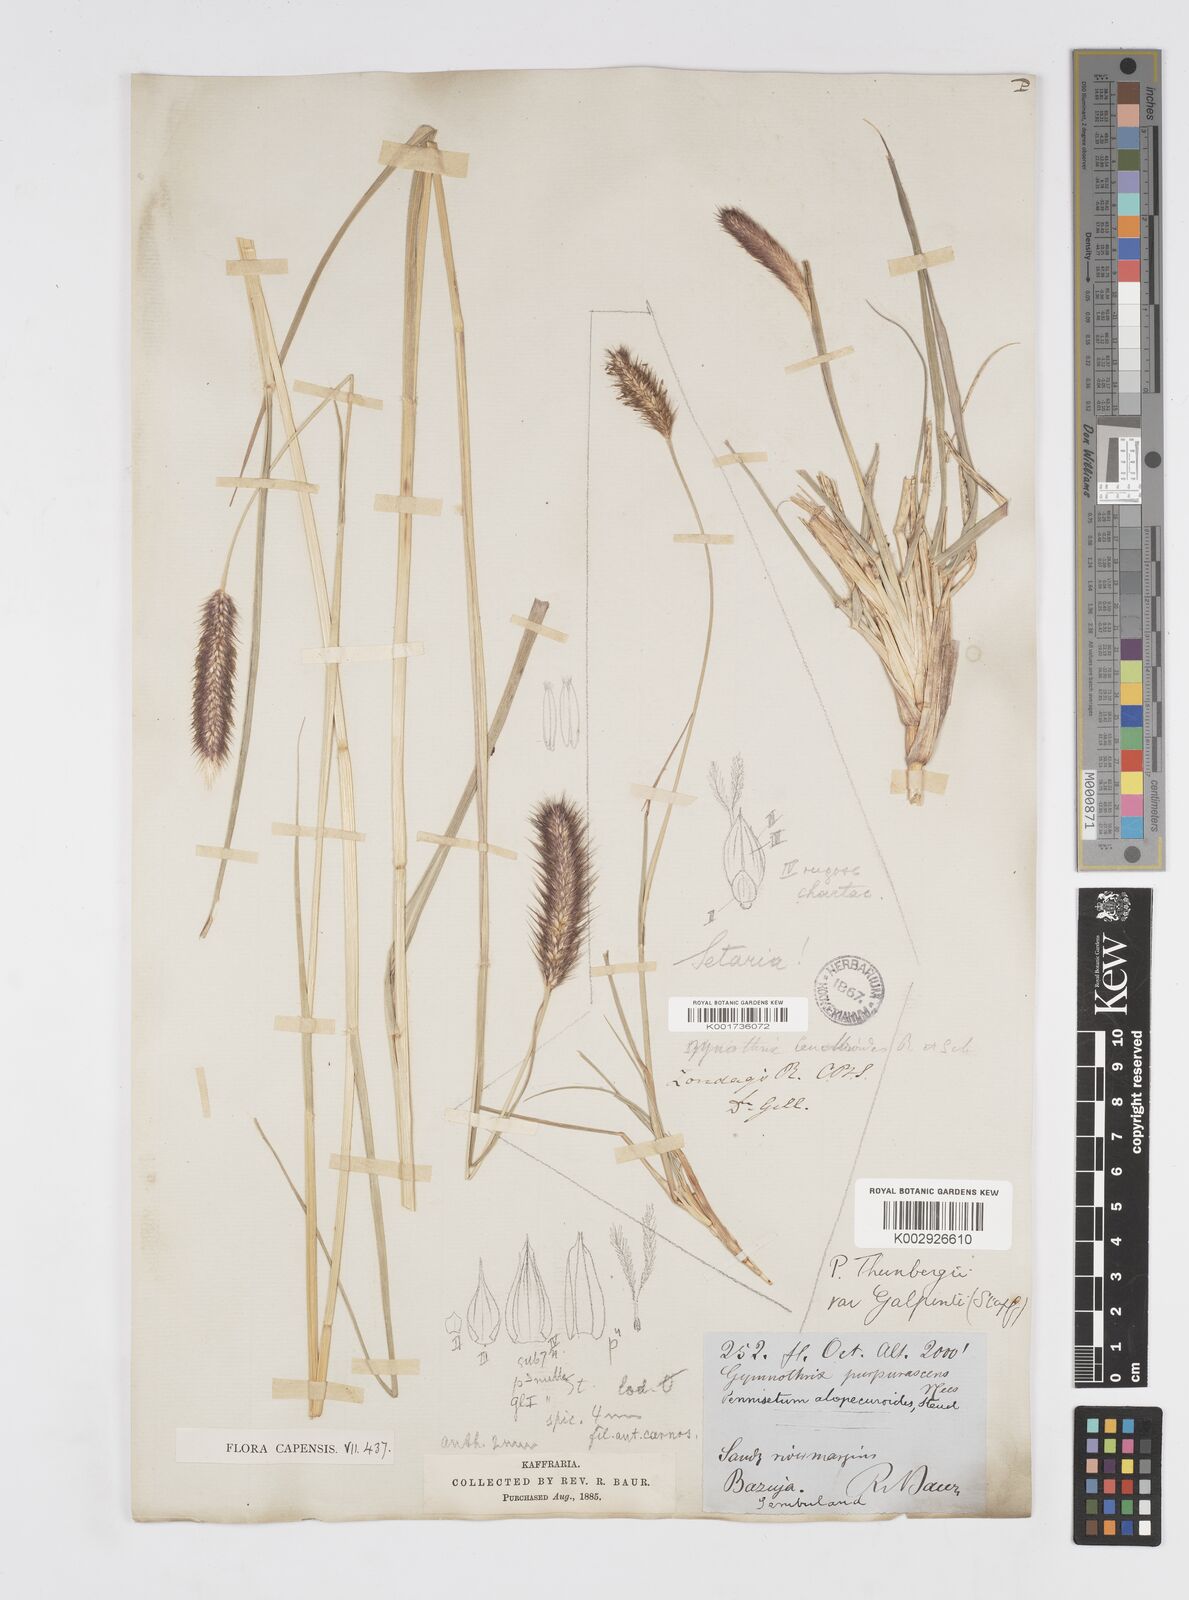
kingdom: Plantae
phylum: Tracheophyta
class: Liliopsida
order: Poales
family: Poaceae
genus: Cenchrus
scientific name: Cenchrus geniculatus
